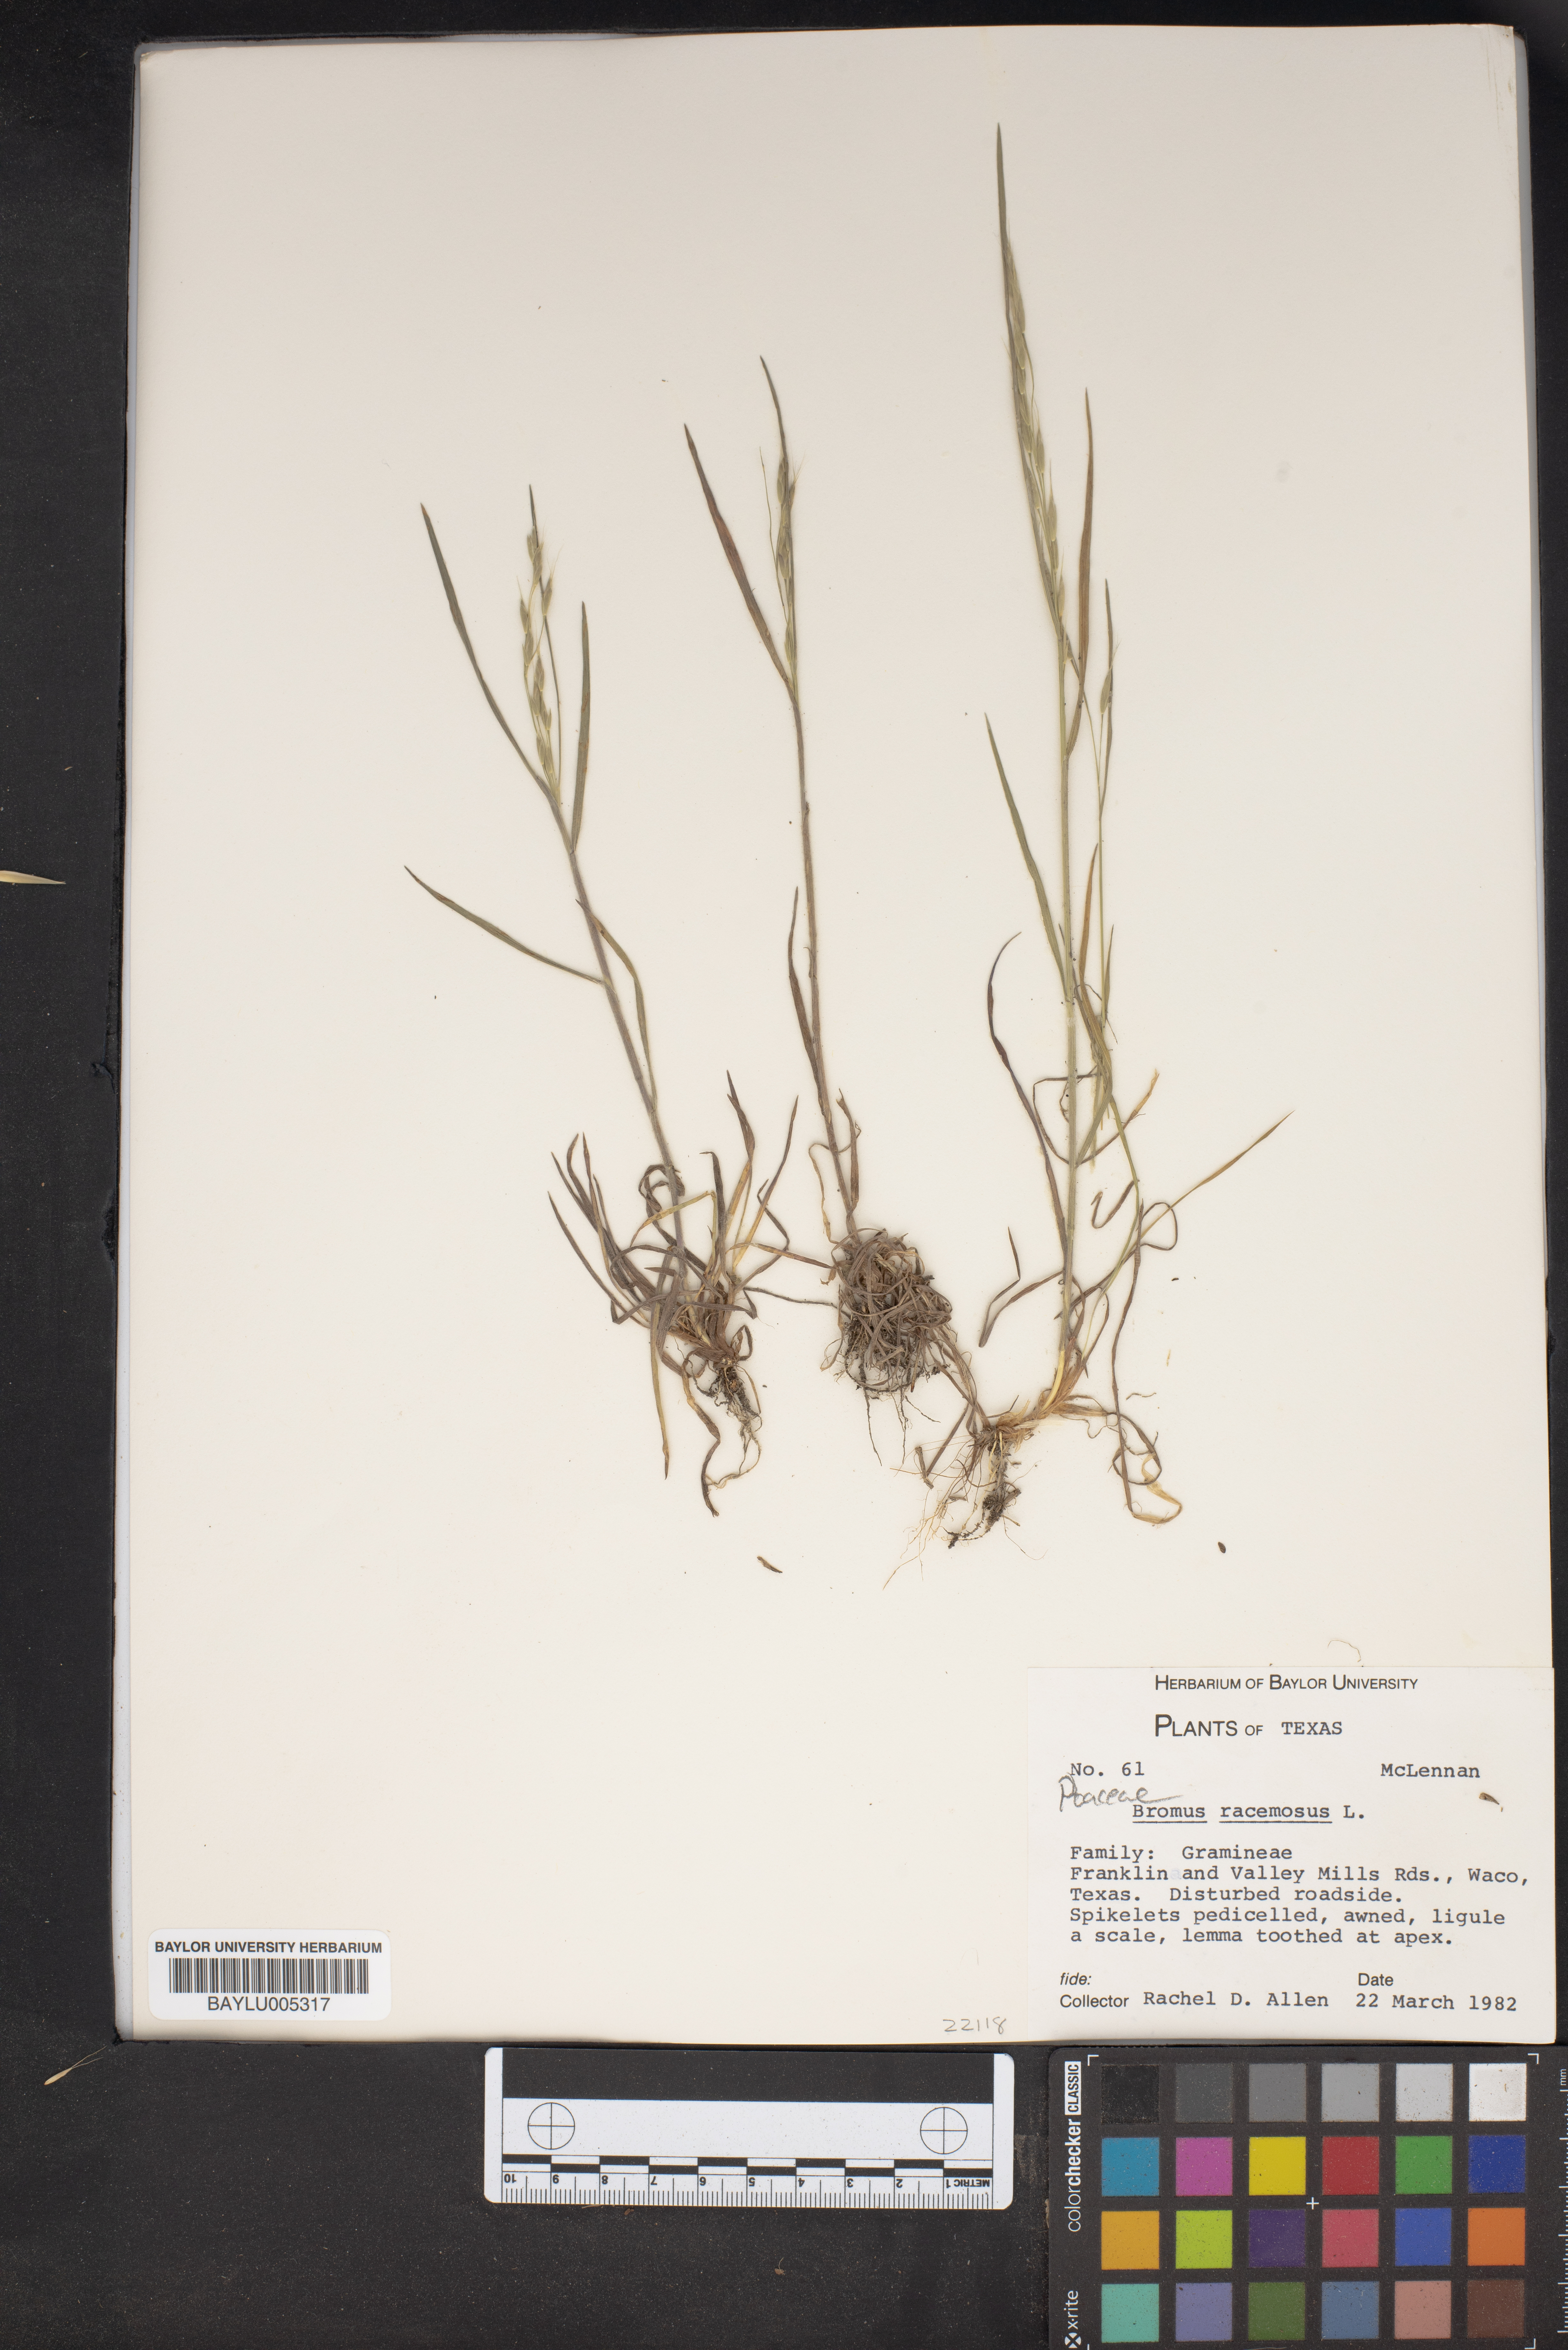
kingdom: Plantae
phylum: Tracheophyta
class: Liliopsida
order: Poales
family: Poaceae
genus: Bromus
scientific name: Bromus racemosus
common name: Bald brome
